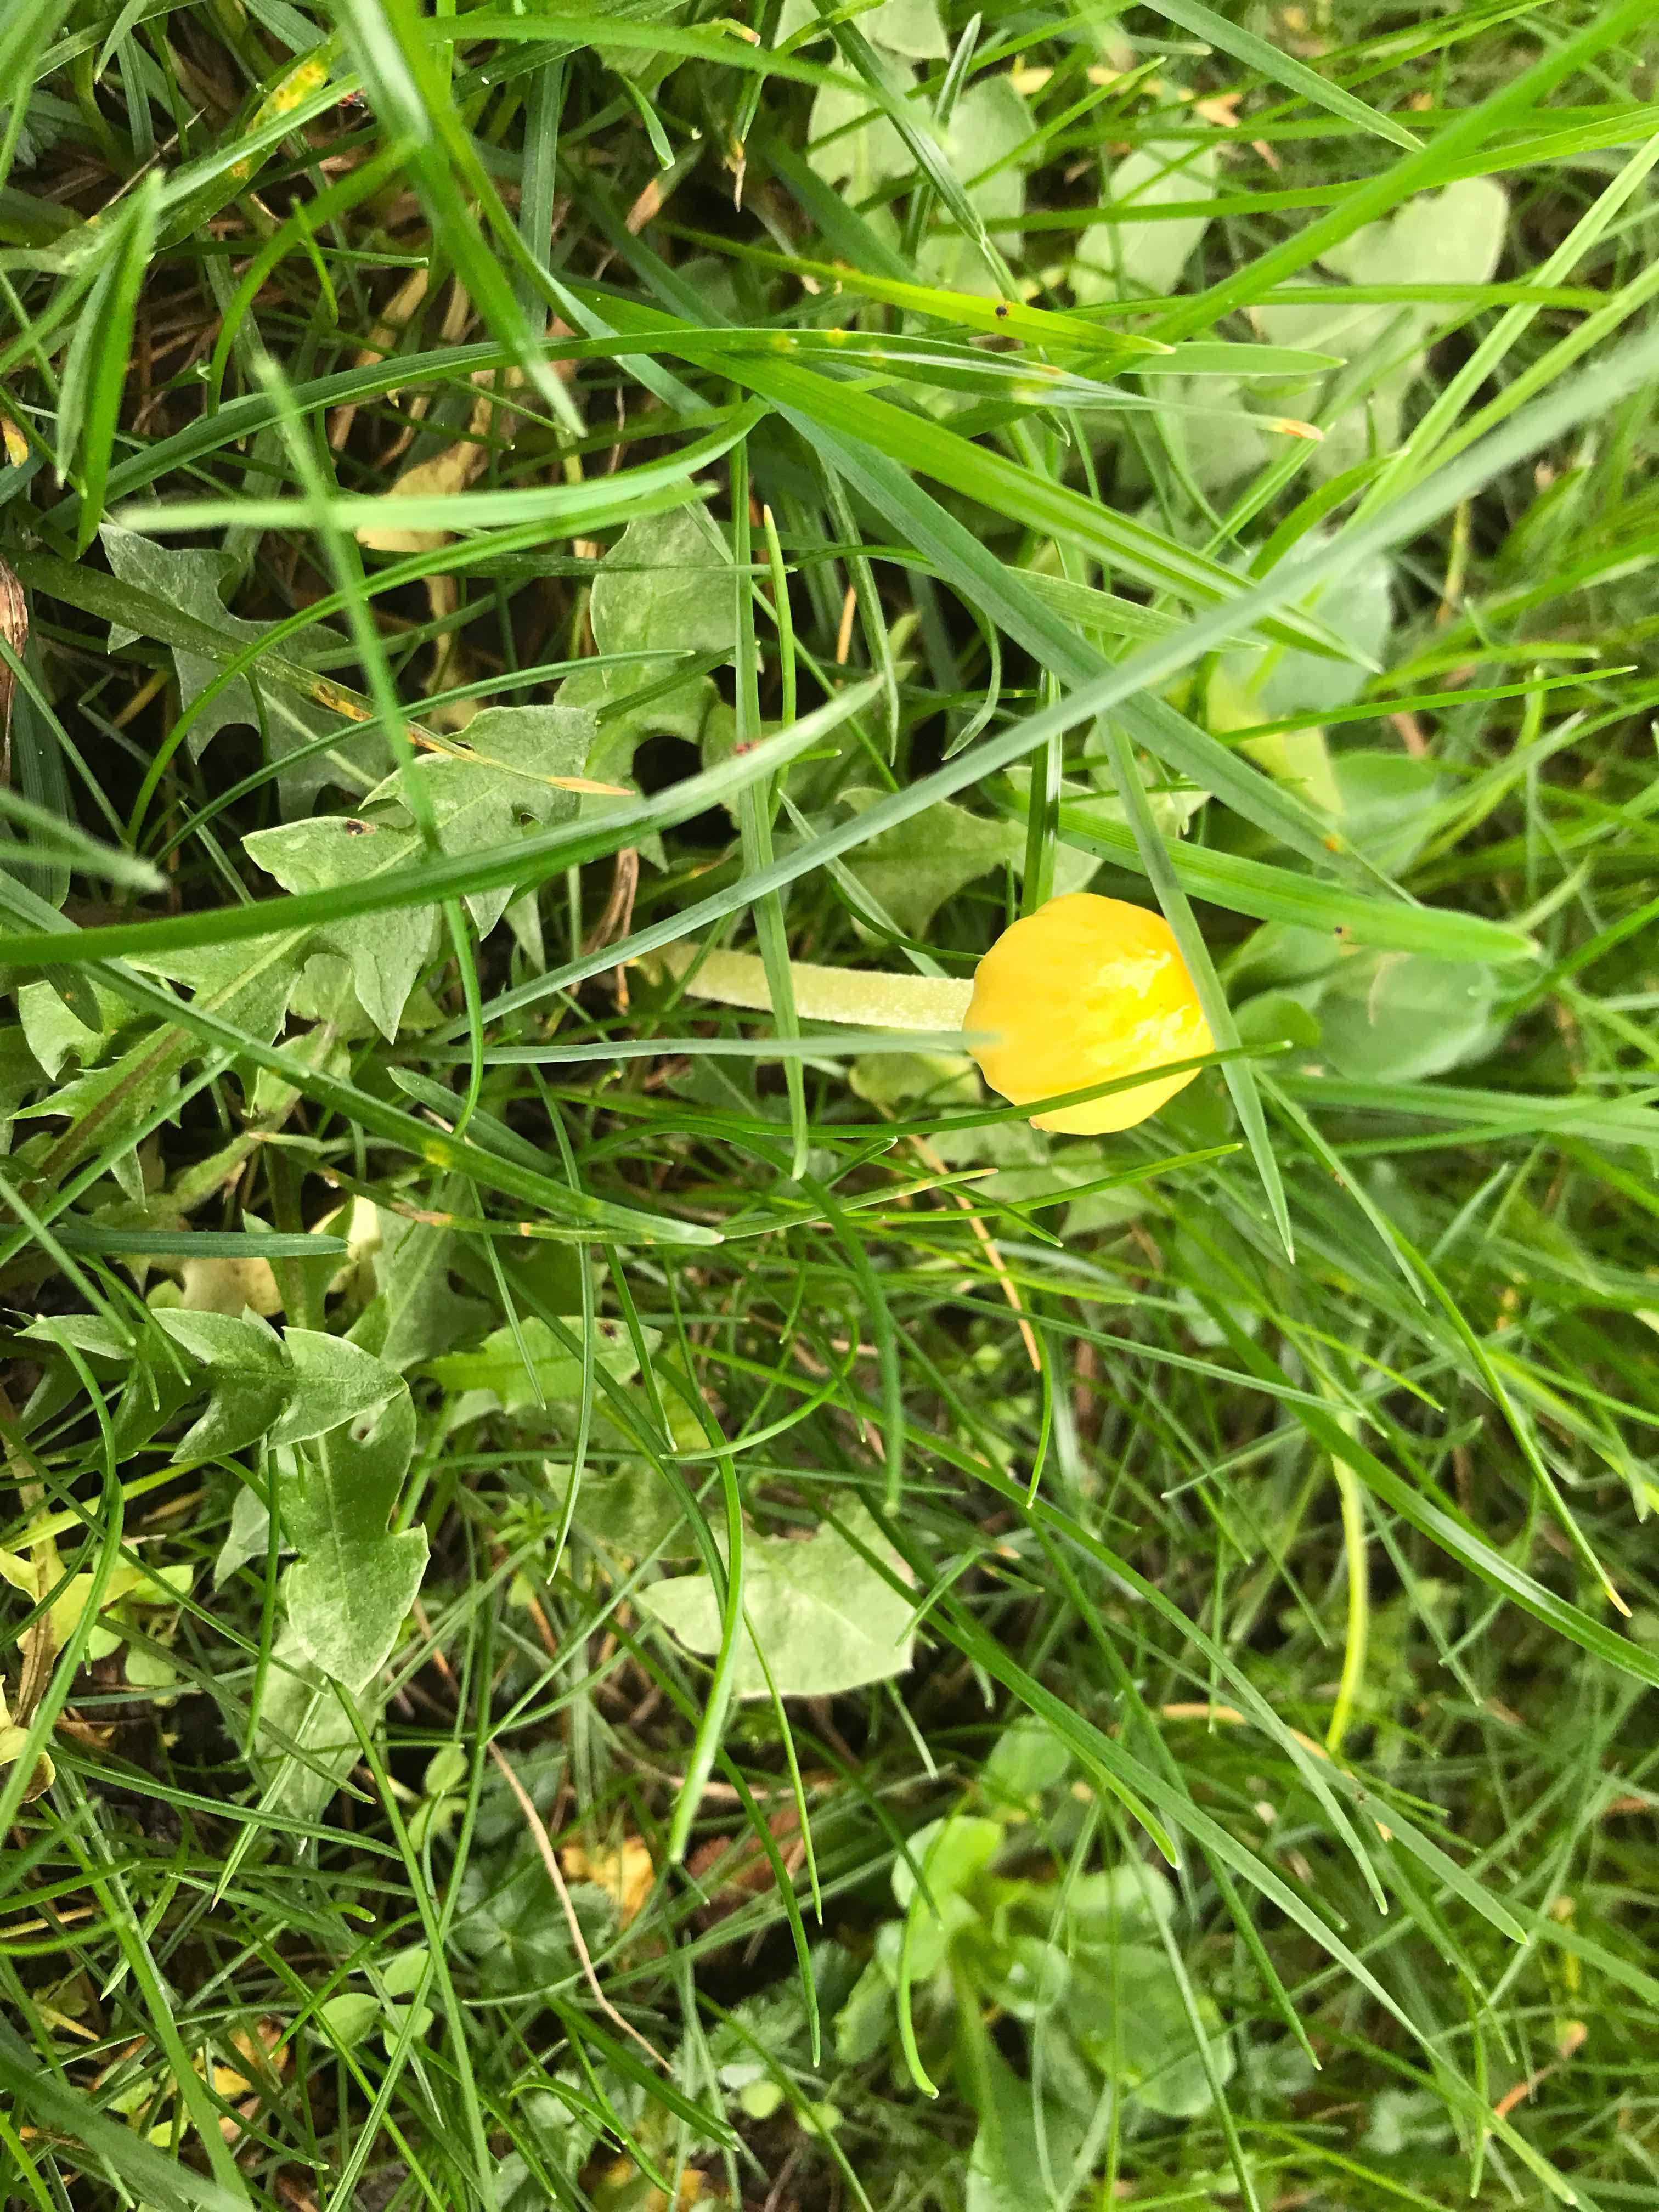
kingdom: Fungi
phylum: Basidiomycota
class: Agaricomycetes
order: Agaricales
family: Bolbitiaceae
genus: Bolbitius
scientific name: Bolbitius titubans
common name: almindelig gulhat
